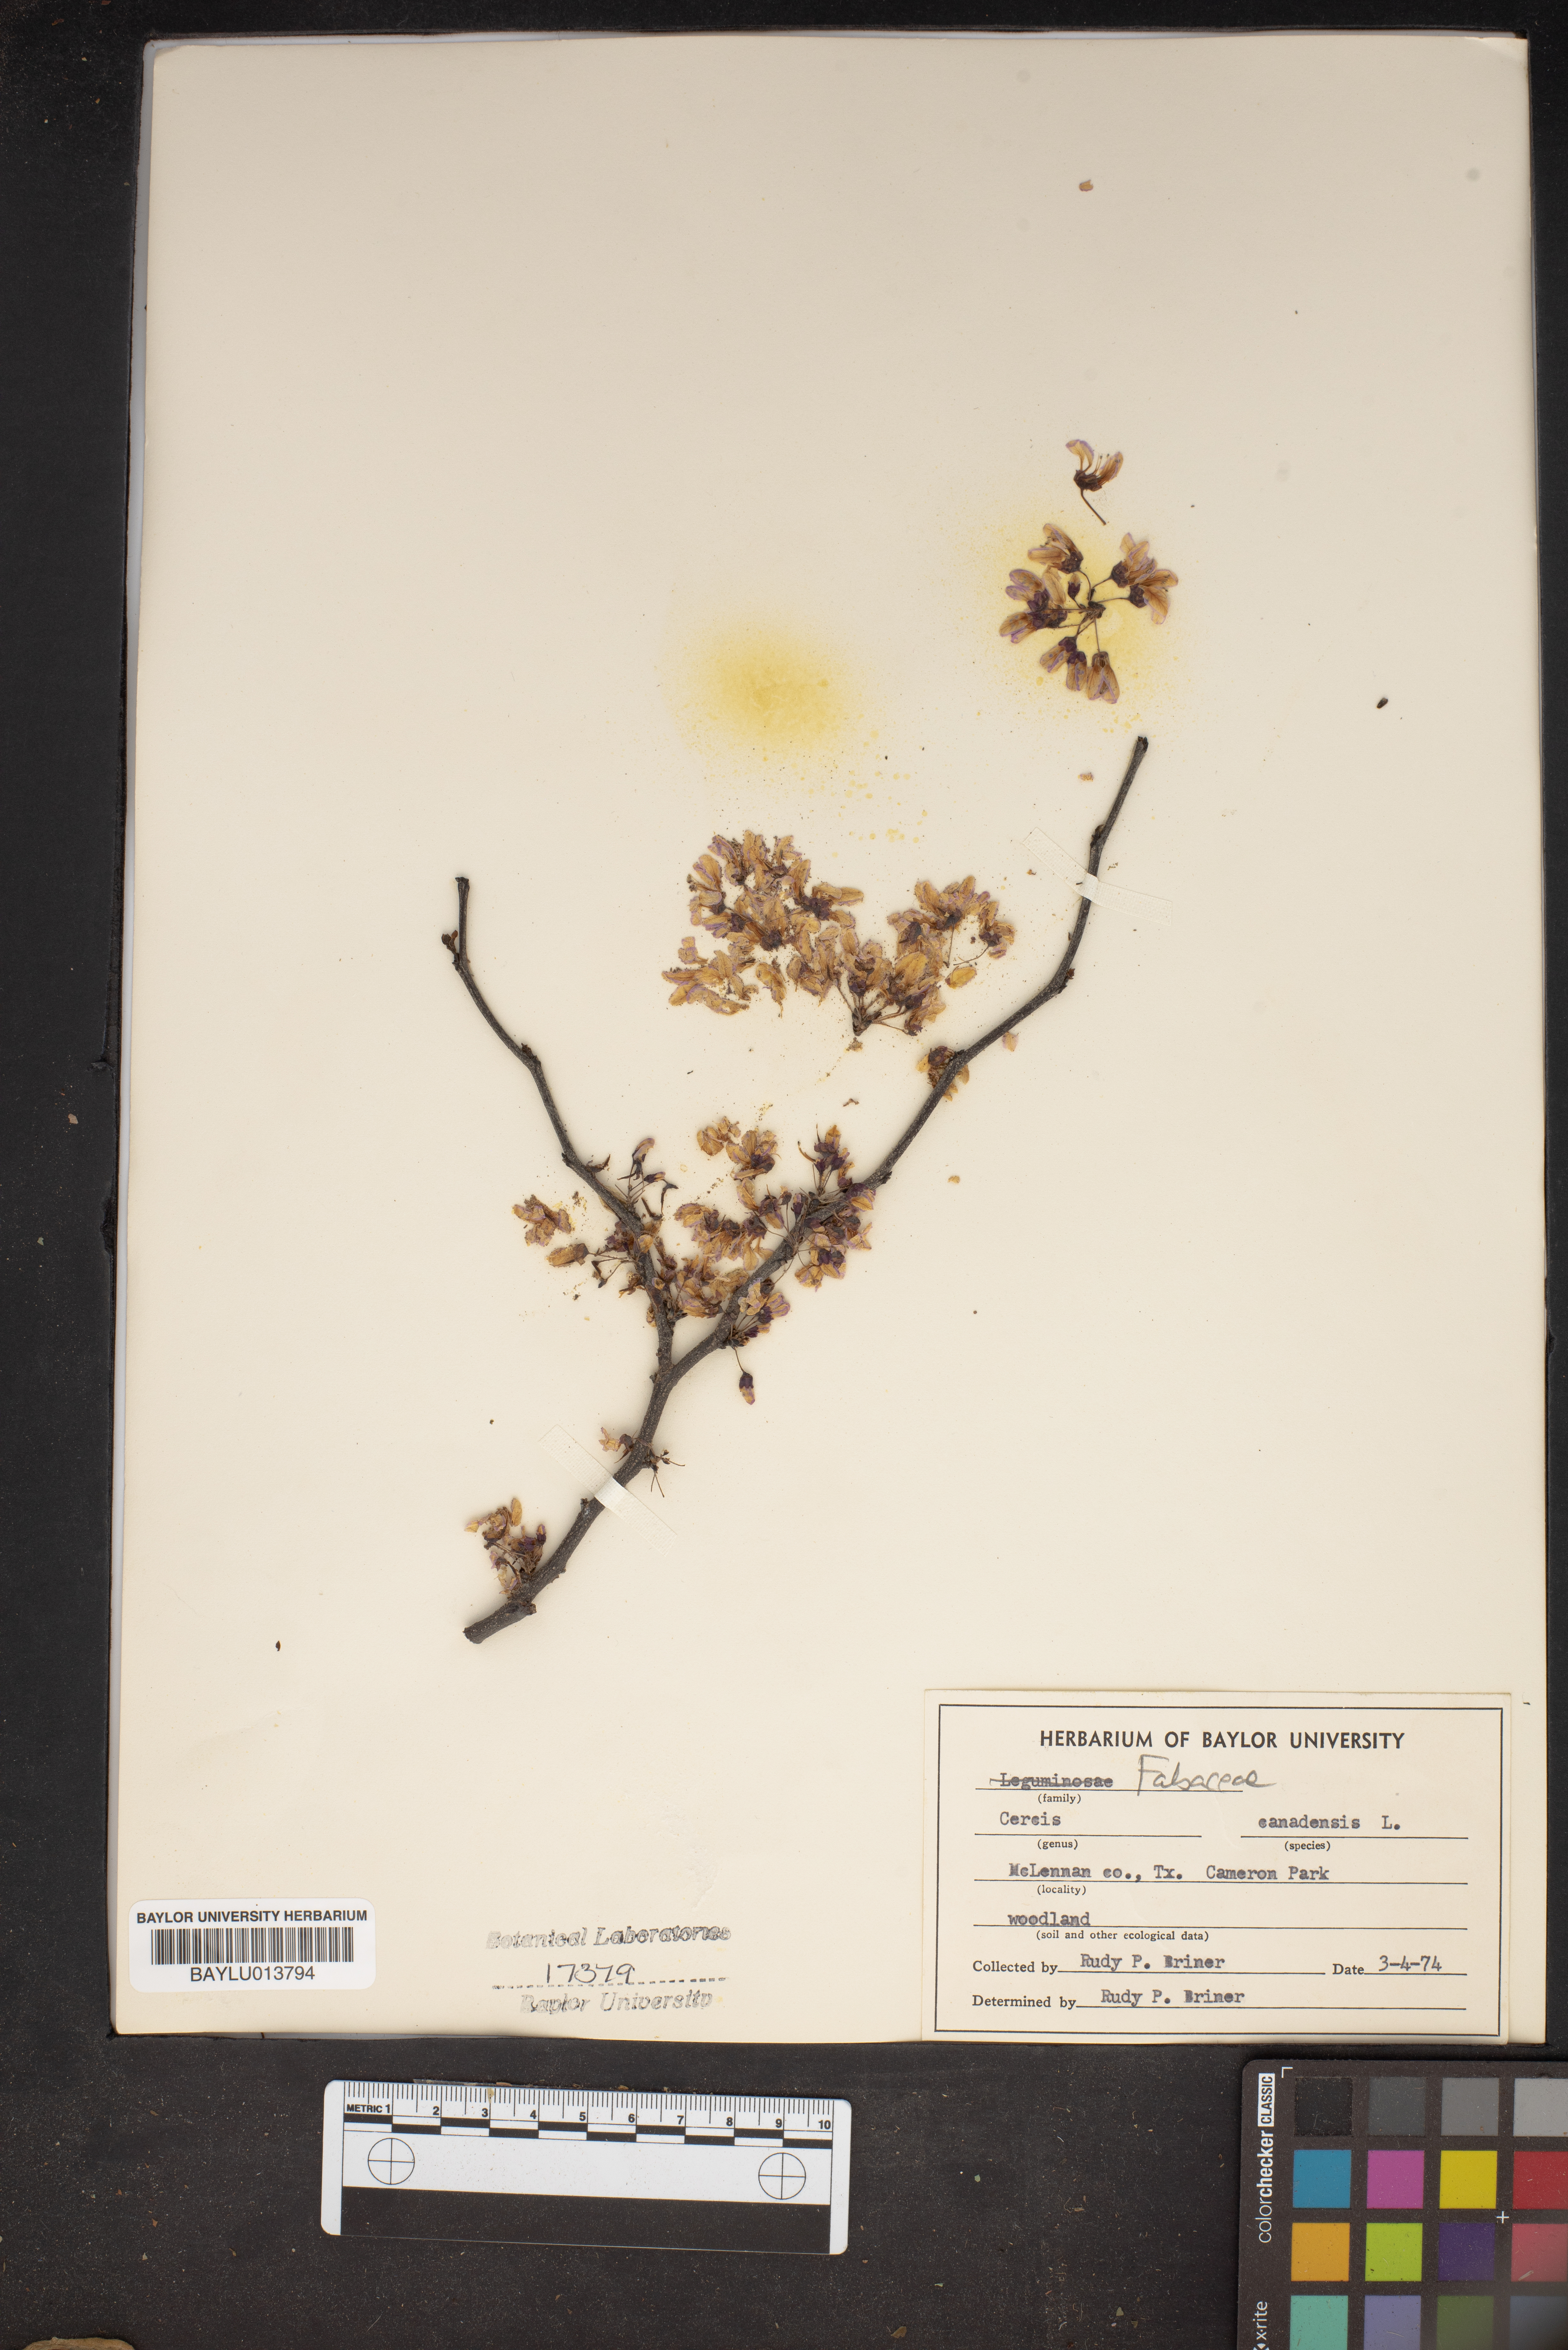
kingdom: Plantae
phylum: Tracheophyta
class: Magnoliopsida
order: Fabales
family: Fabaceae
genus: Cercis
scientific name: Cercis canadensis
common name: Eastern redbud
